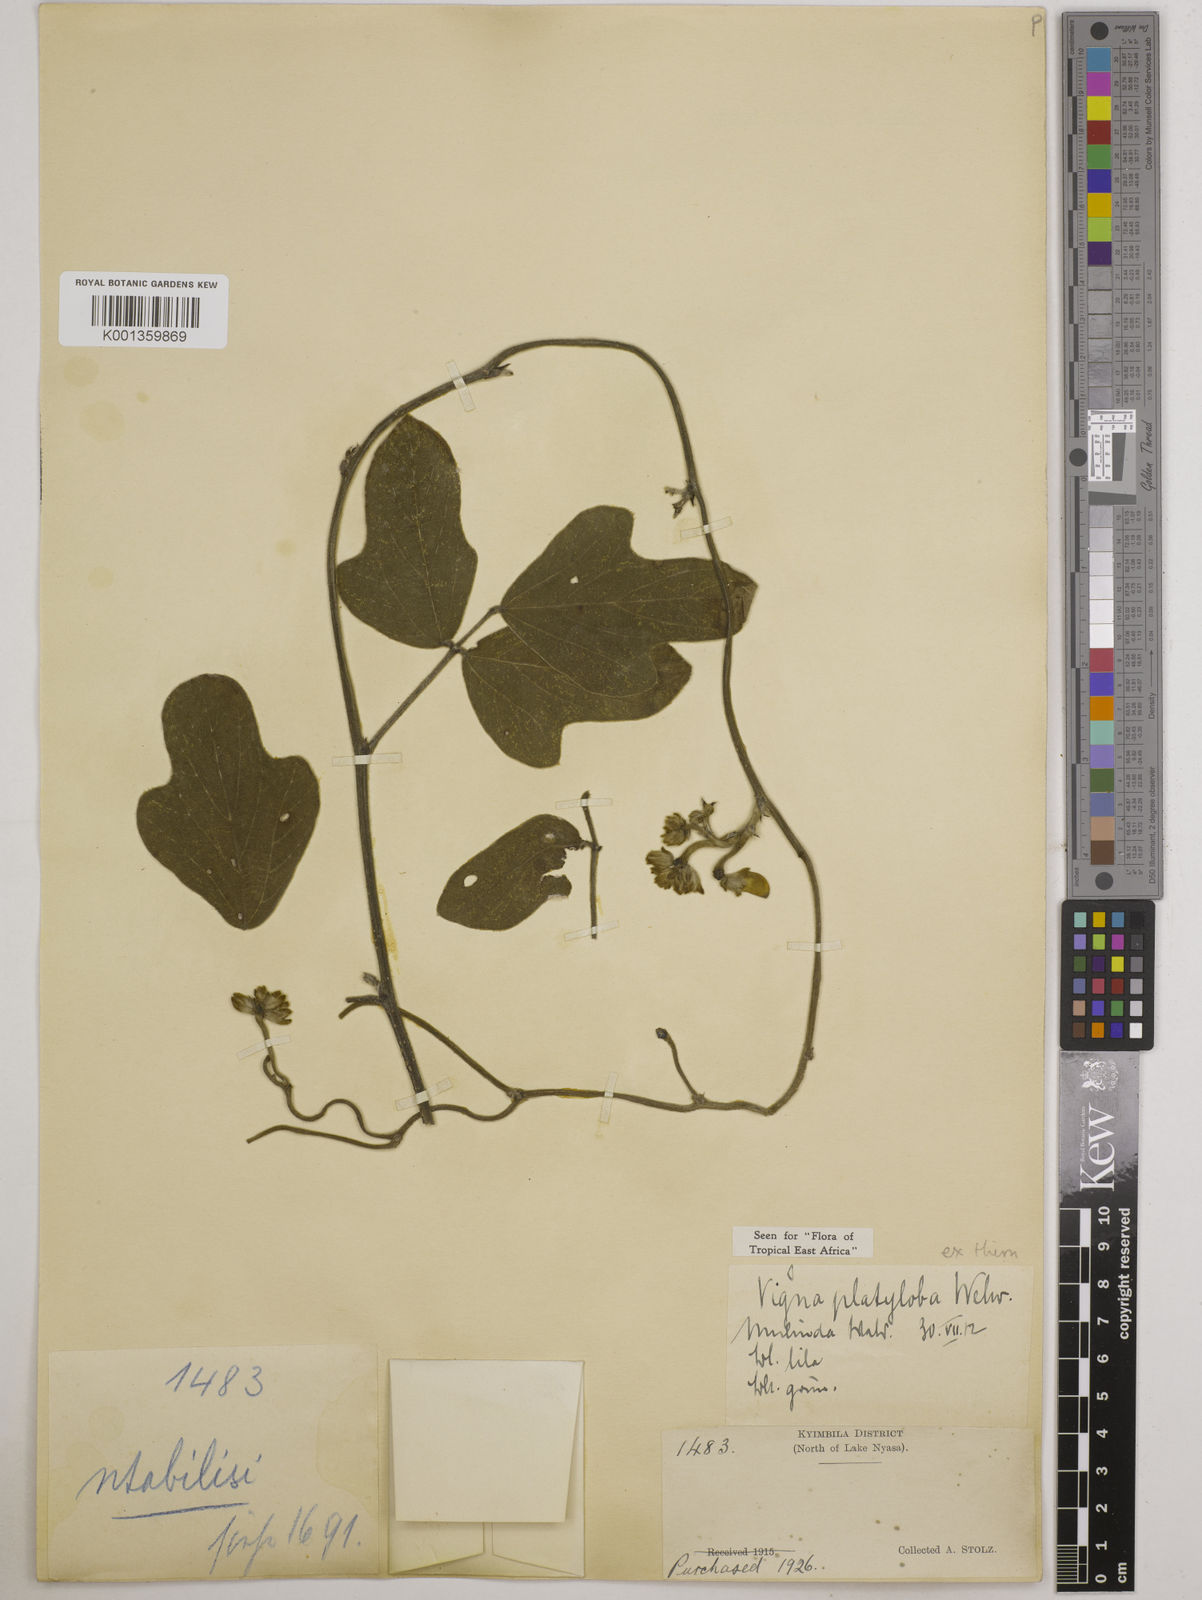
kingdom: Plantae
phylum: Tracheophyta
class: Magnoliopsida
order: Fabales
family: Fabaceae
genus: Vigna
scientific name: Vigna platyloba
